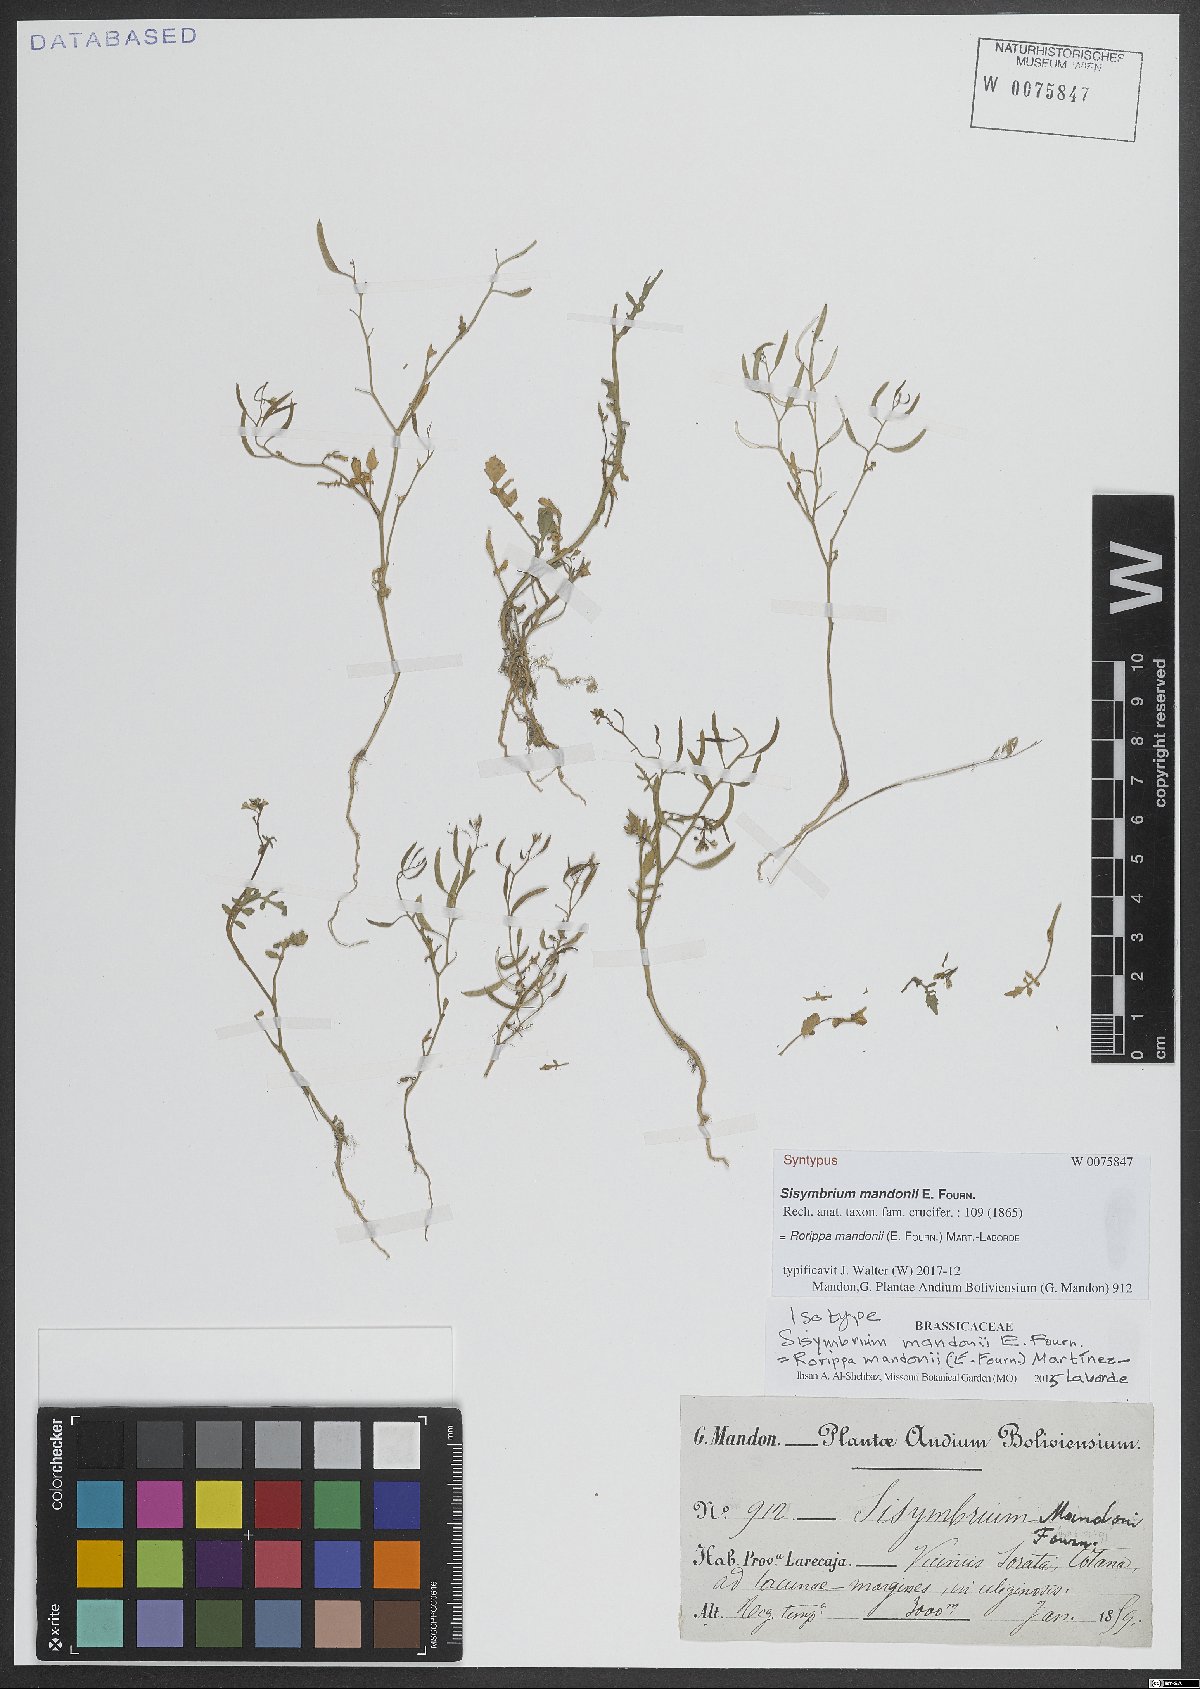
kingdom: Plantae
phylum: Tracheophyta
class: Magnoliopsida
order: Brassicales
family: Brassicaceae
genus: Rorippa
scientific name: Rorippa mandonii
